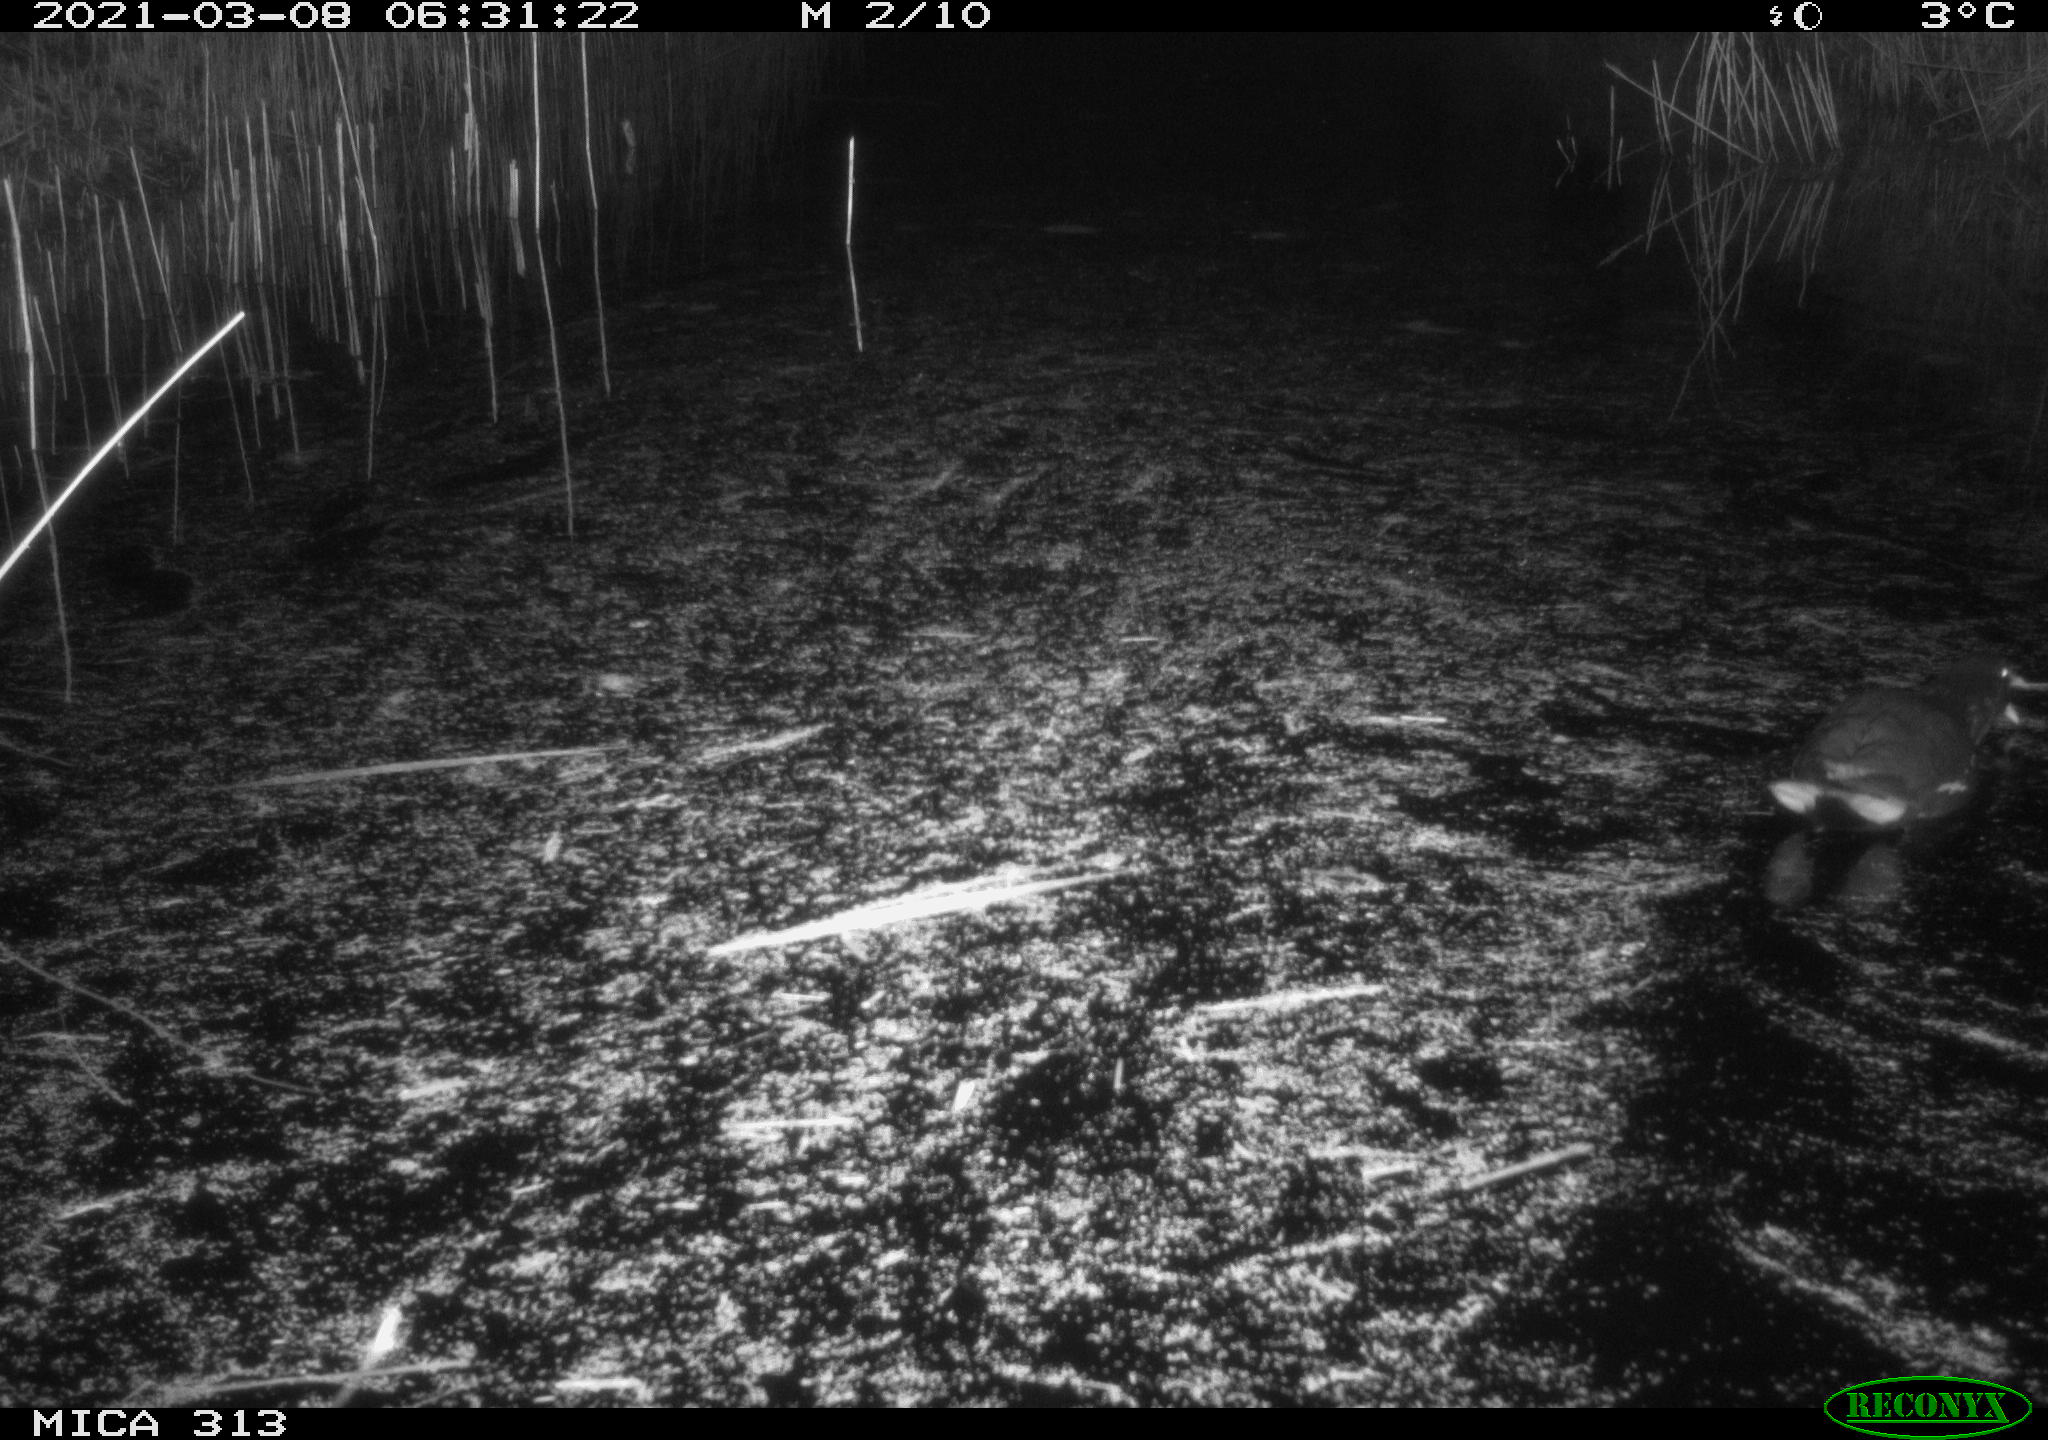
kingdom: Animalia
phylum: Chordata
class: Aves
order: Gruiformes
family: Rallidae
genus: Gallinula
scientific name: Gallinula chloropus
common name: Common moorhen
